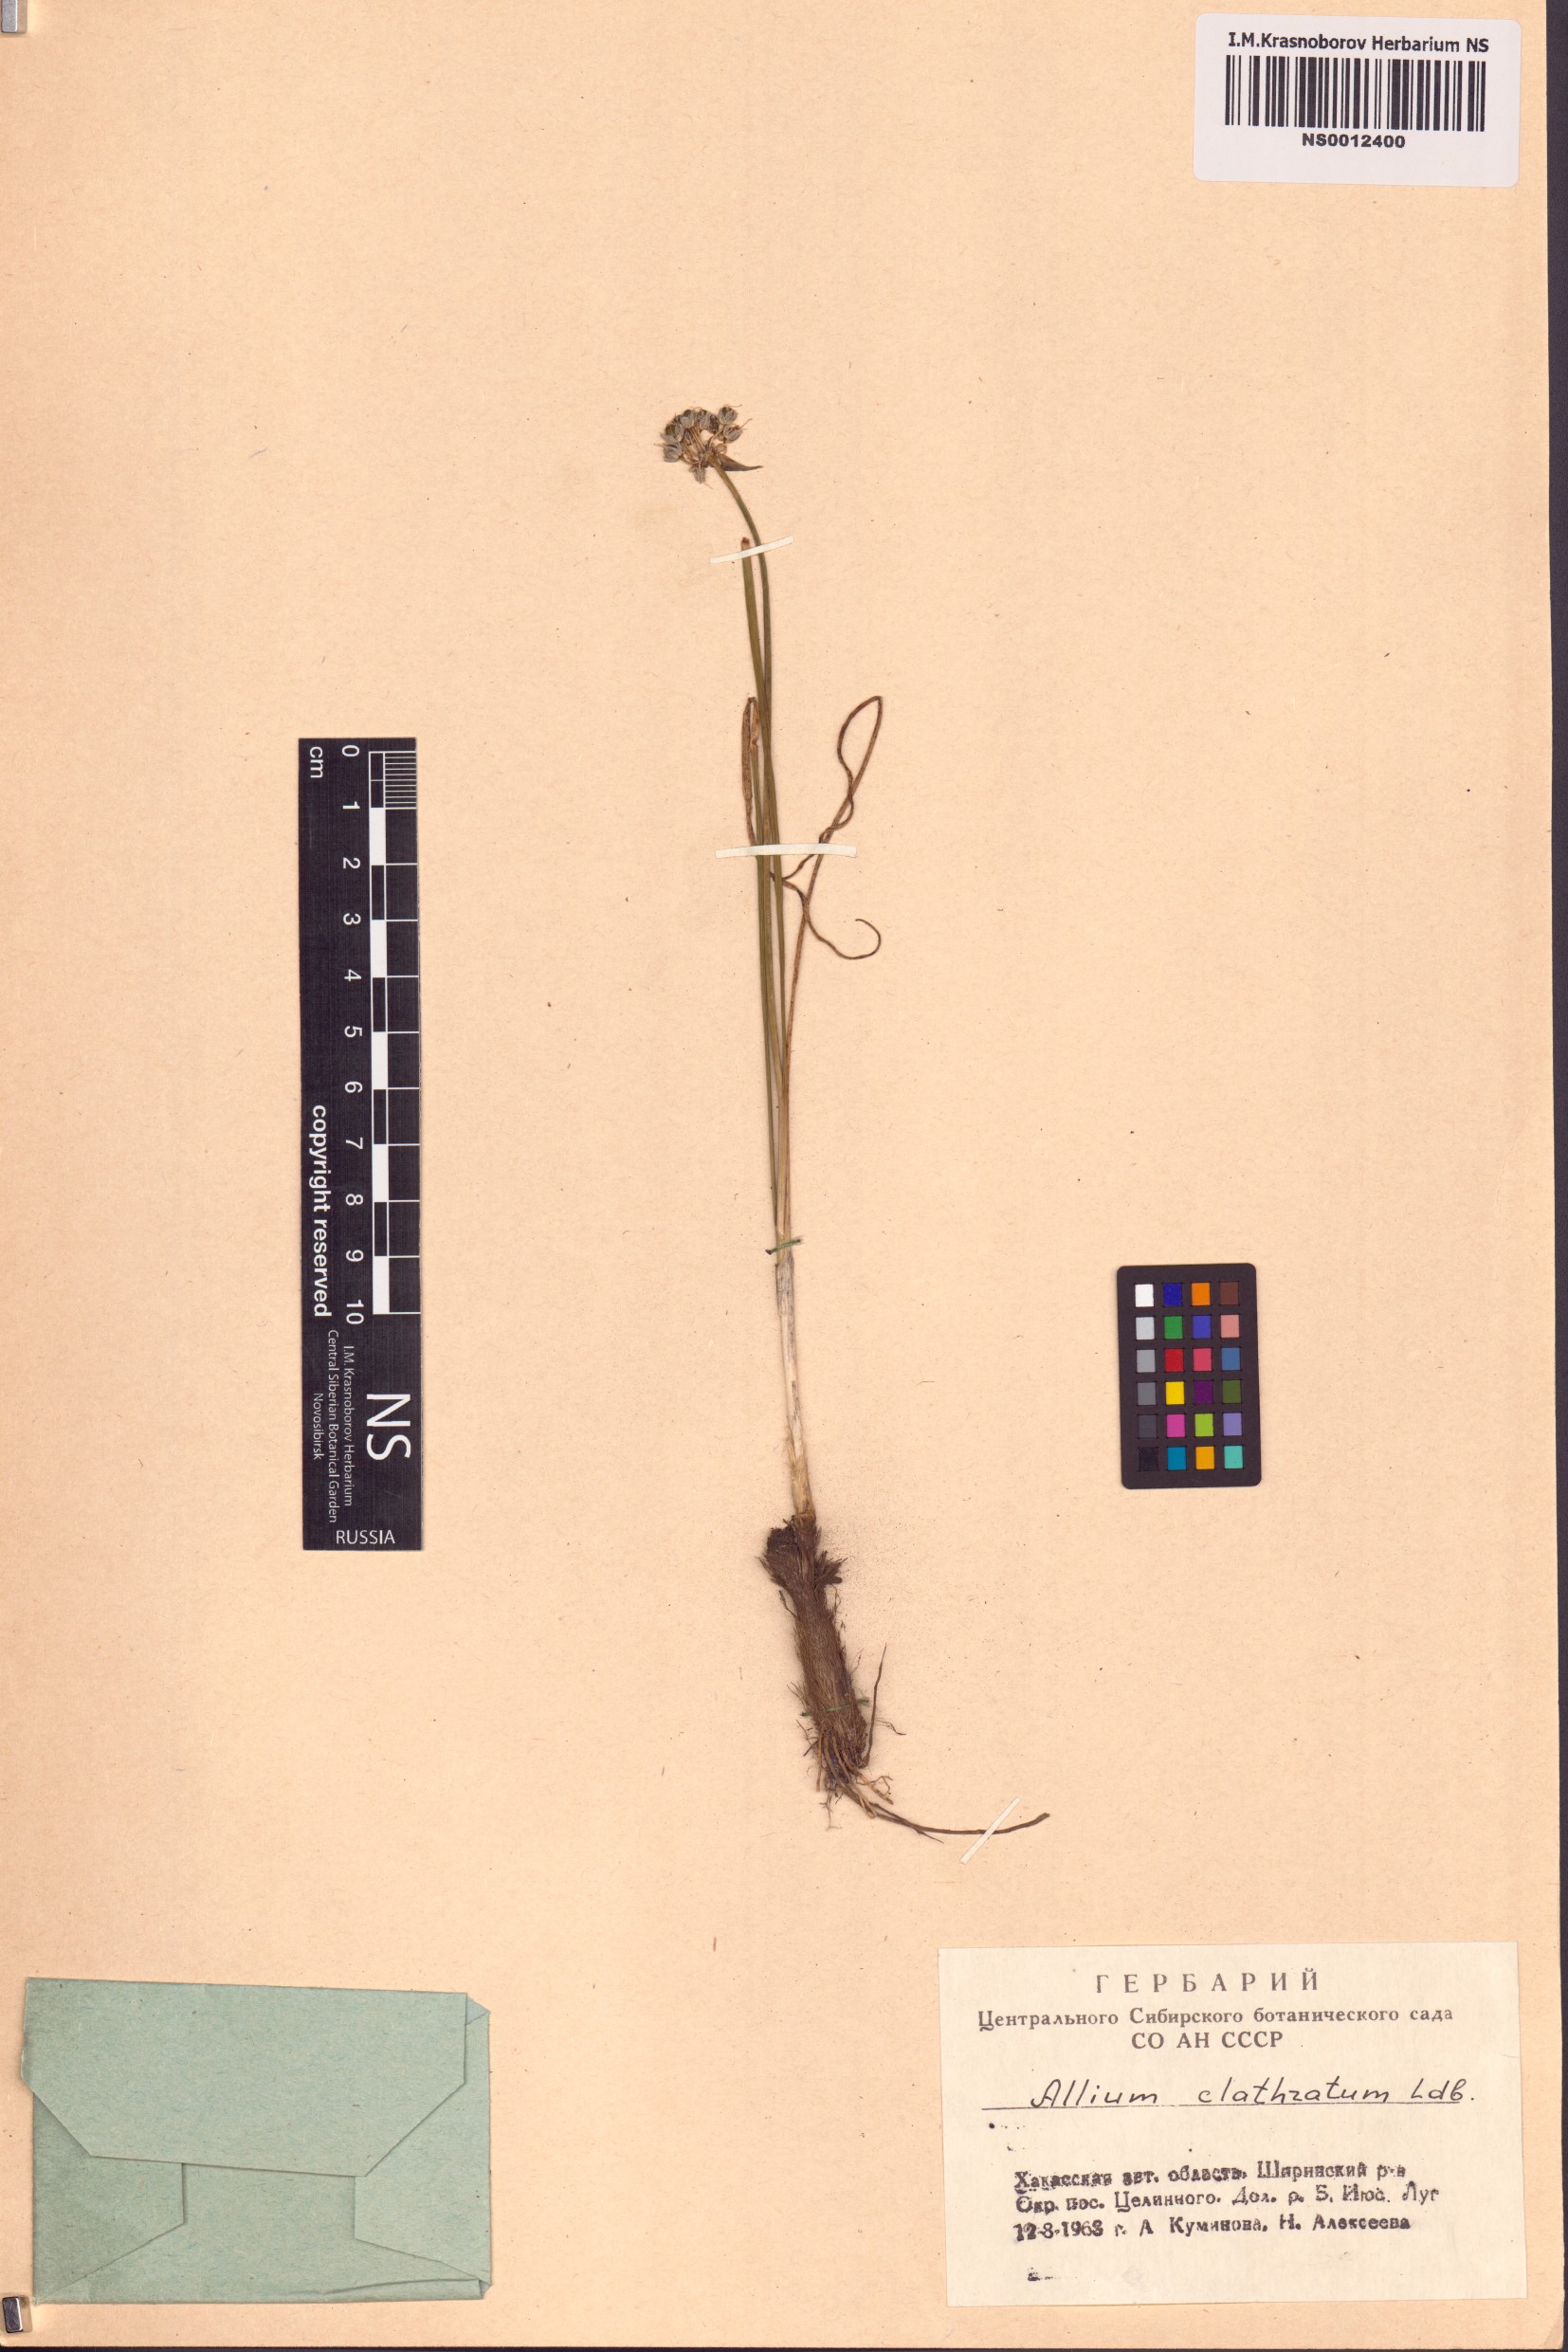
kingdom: Plantae
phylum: Tracheophyta
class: Liliopsida
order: Asparagales
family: Amaryllidaceae
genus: Allium
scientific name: Allium clathratum
